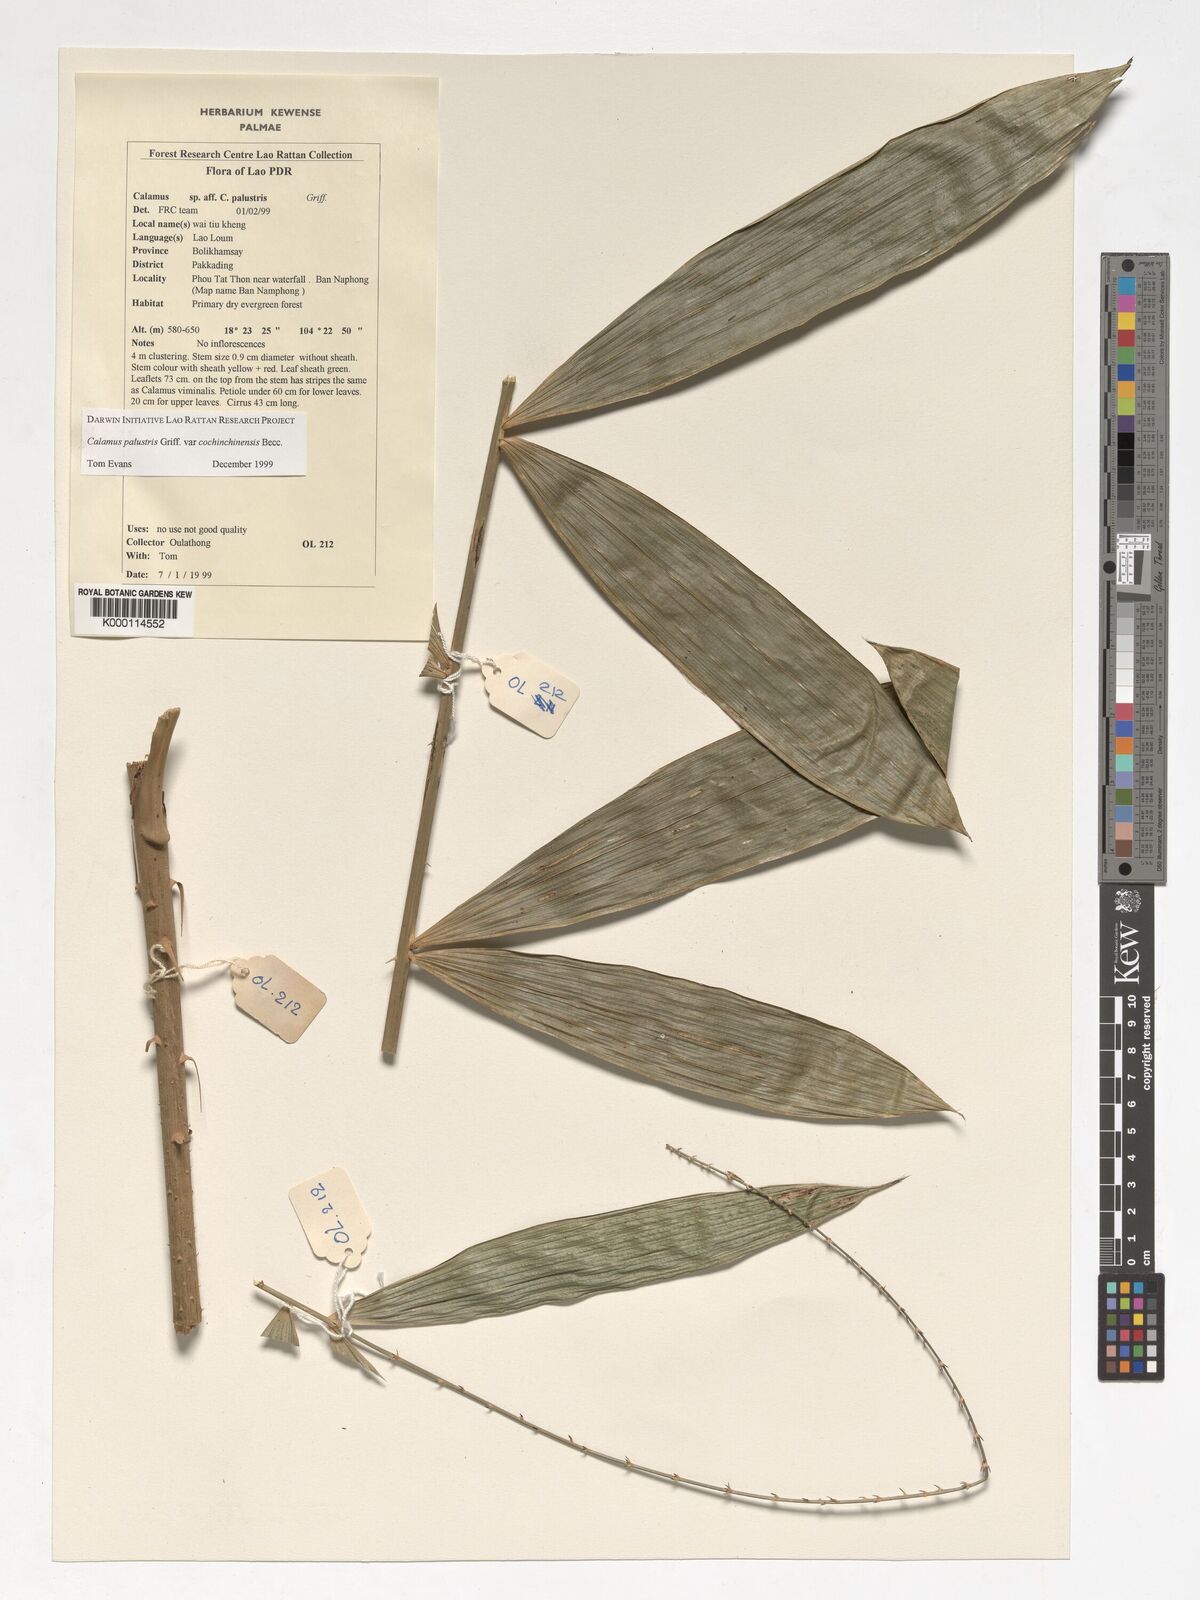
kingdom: Plantae
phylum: Tracheophyta
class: Liliopsida
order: Arecales
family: Arecaceae
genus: Calamus
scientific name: Calamus latifolius
